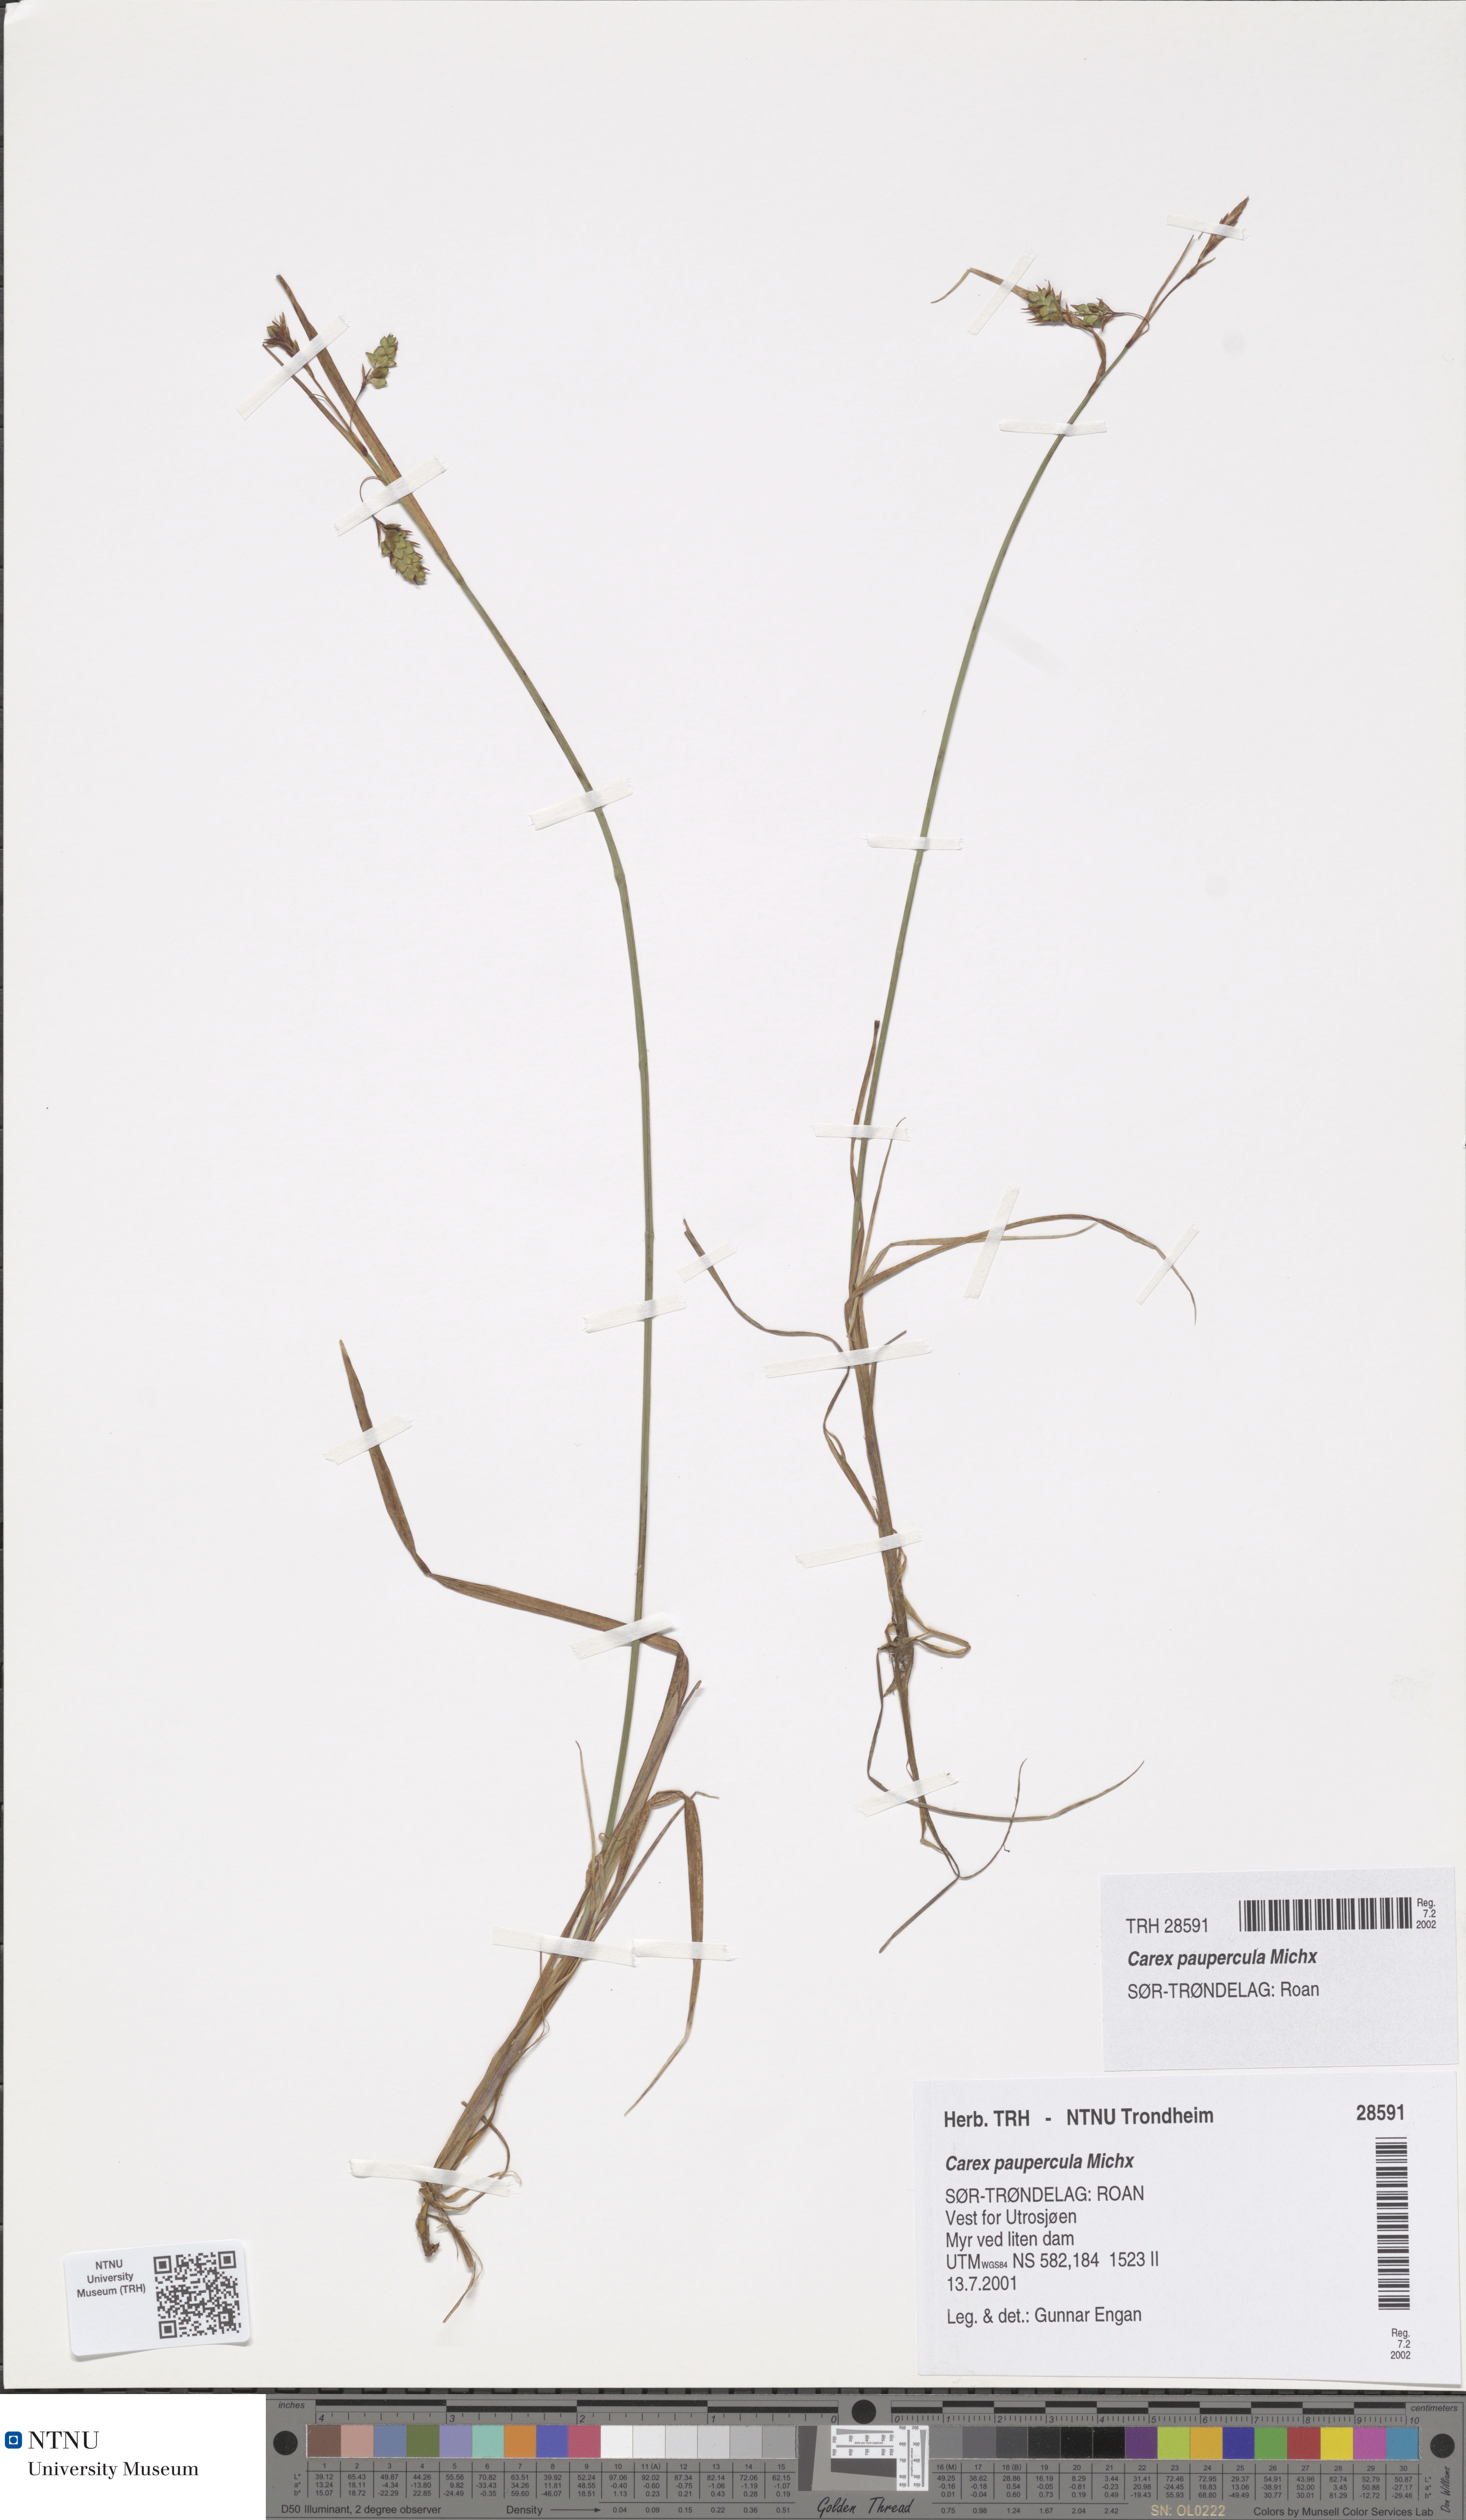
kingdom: Plantae
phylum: Tracheophyta
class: Liliopsida
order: Poales
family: Cyperaceae
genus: Carex
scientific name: Carex magellanica
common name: Bog sedge
